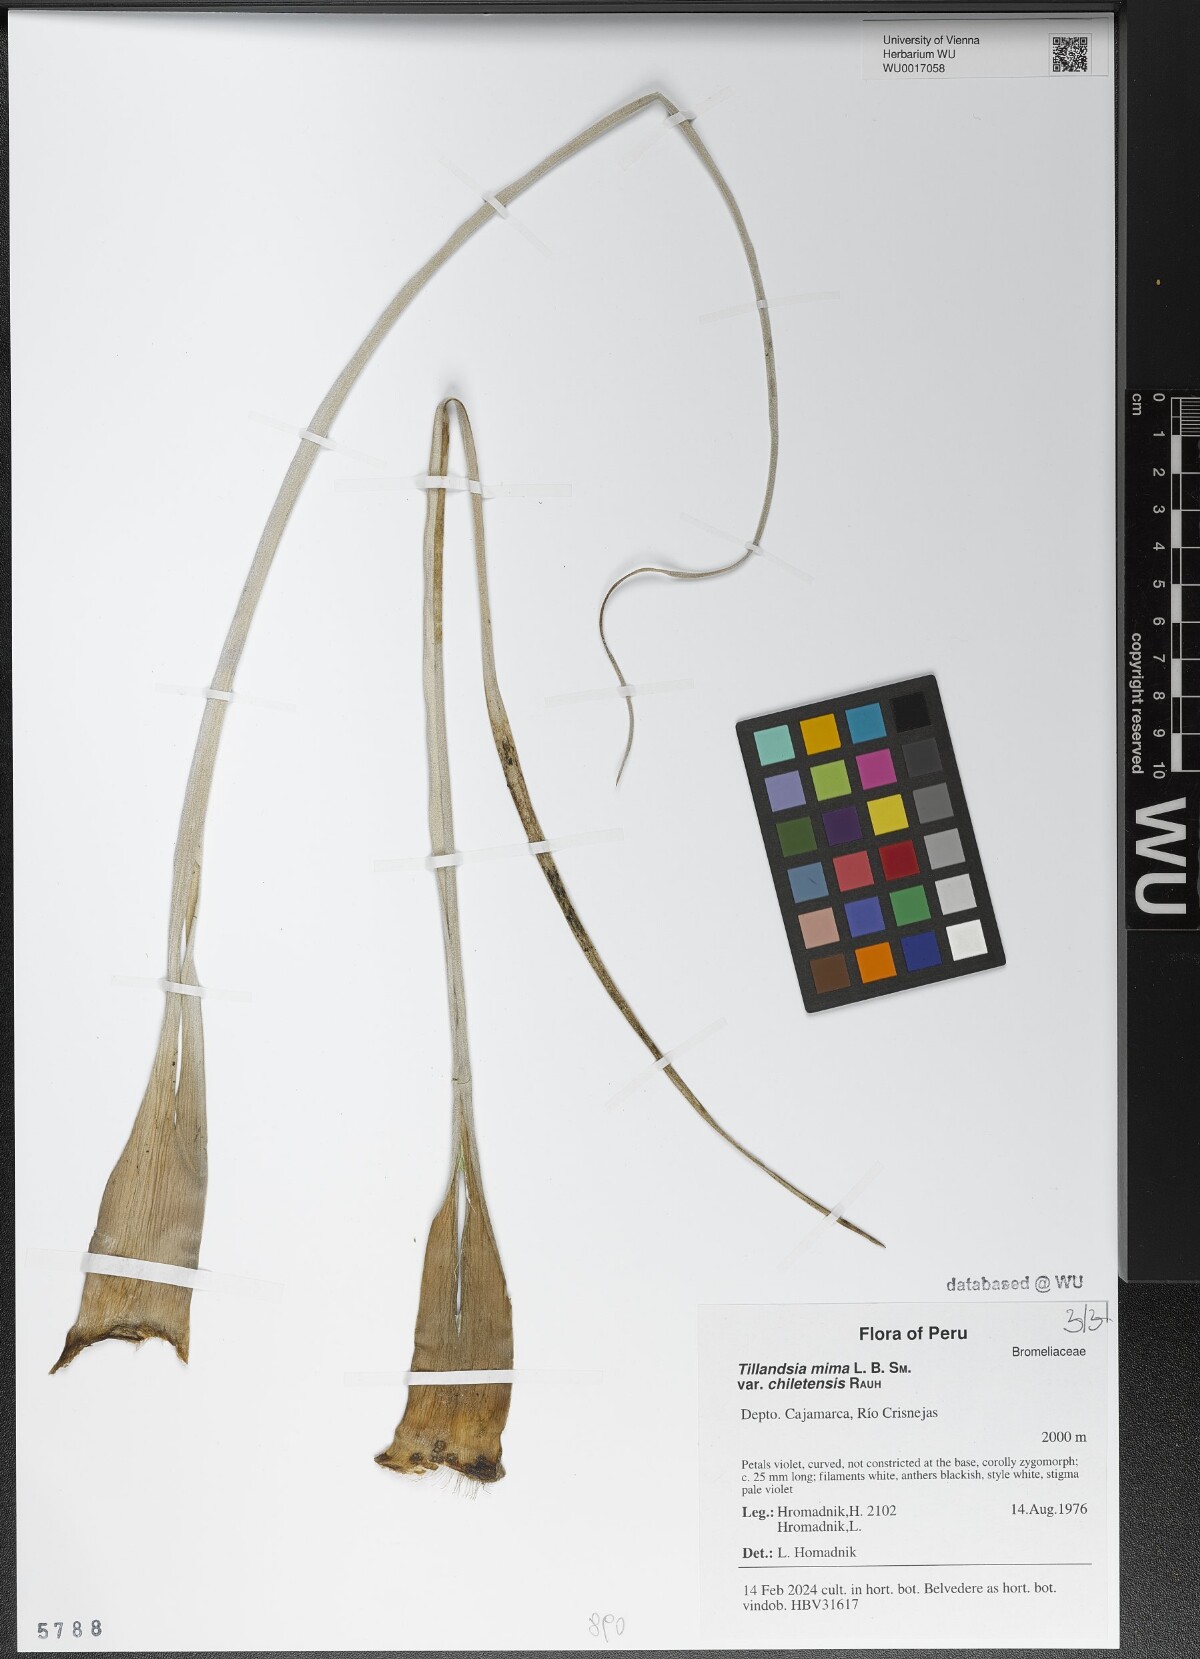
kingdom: Plantae
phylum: Tracheophyta
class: Liliopsida
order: Poales
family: Bromeliaceae
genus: Tillandsia
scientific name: Tillandsia mima
